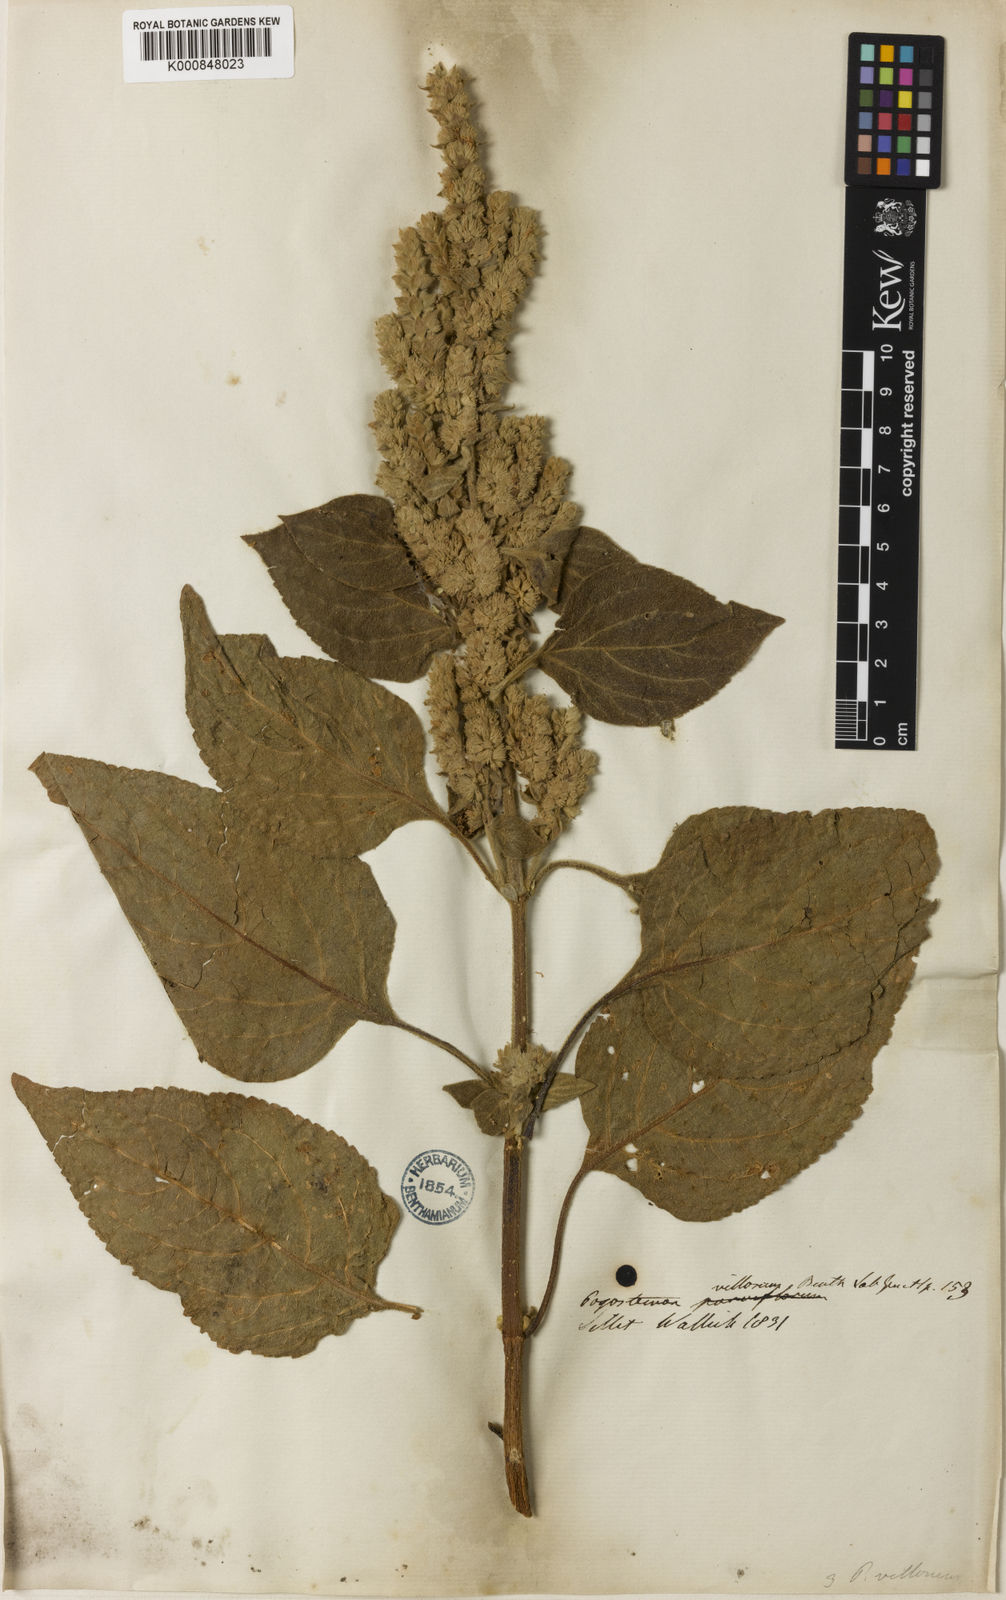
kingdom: Plantae
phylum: Tracheophyta
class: Magnoliopsida
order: Lamiales
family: Lamiaceae
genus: Pogostemon
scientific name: Pogostemon villosus
